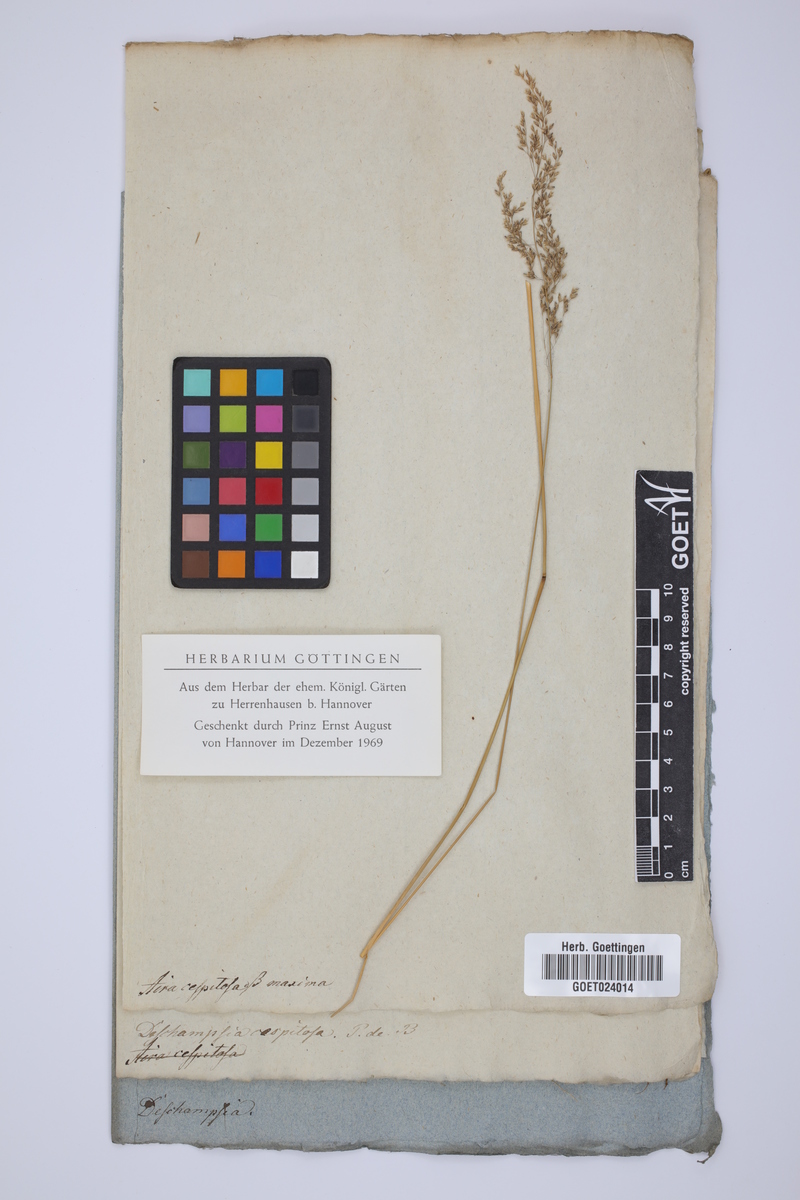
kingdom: Plantae
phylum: Tracheophyta
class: Liliopsida
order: Poales
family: Poaceae
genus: Deschampsia
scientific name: Deschampsia cespitosa
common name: Tufted hair-grass
